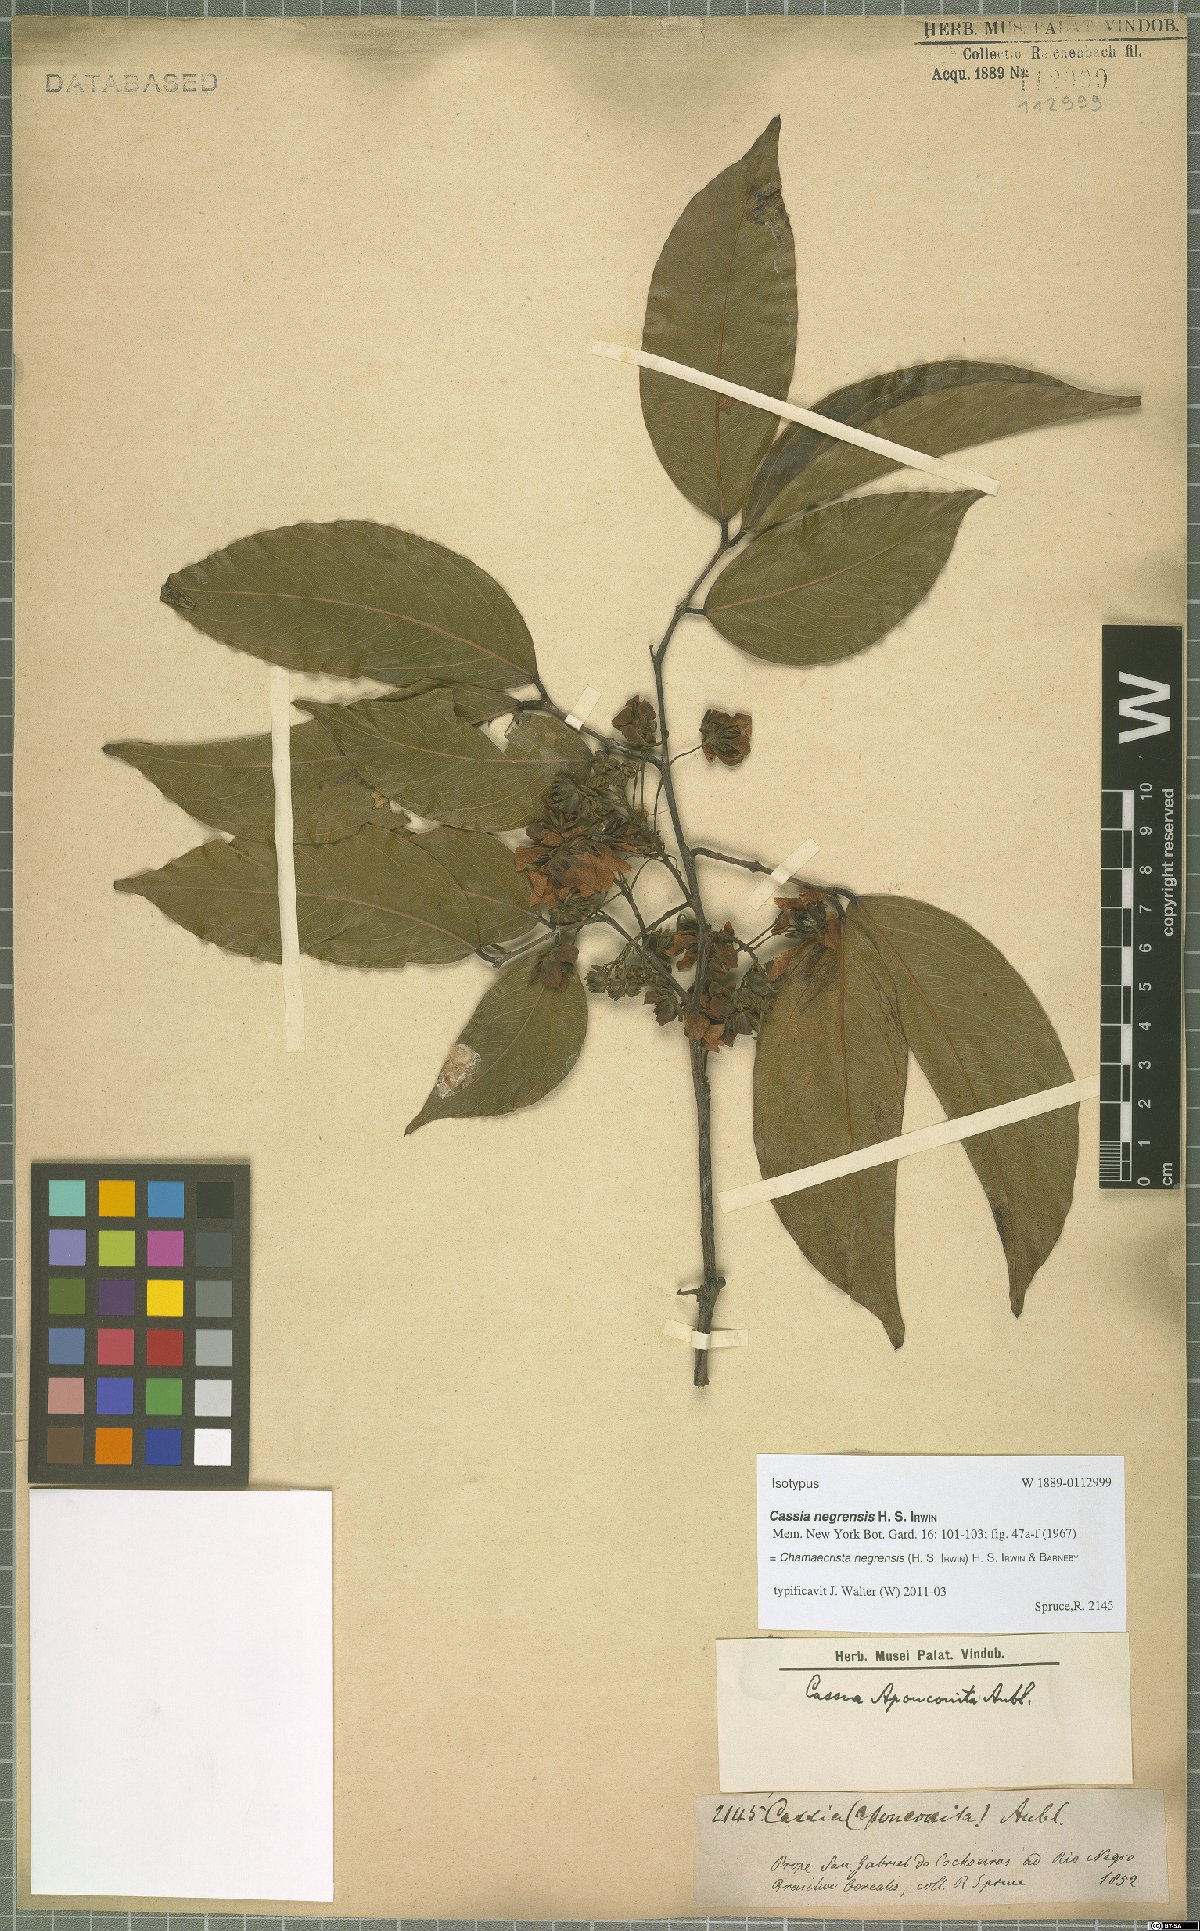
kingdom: Plantae
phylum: Tracheophyta
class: Magnoliopsida
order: Fabales
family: Fabaceae
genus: Chamaecrista
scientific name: Chamaecrista negrensis
